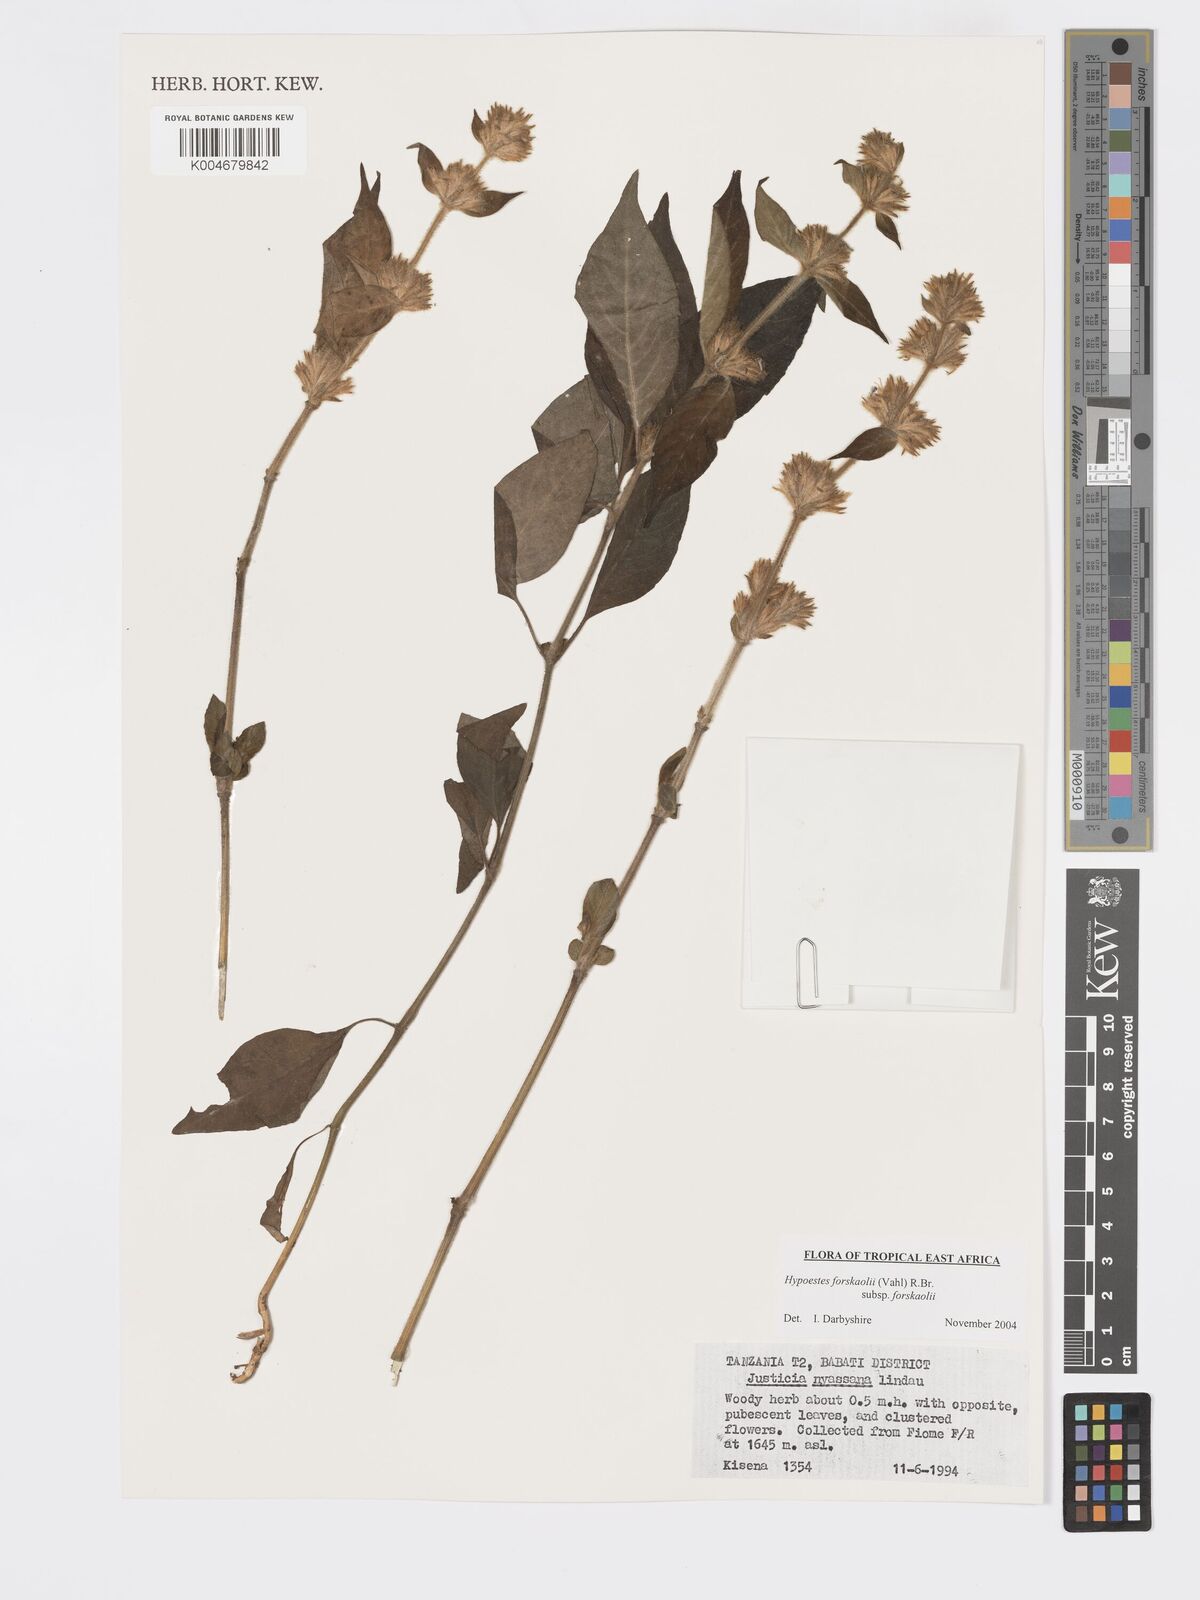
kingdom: Plantae
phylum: Tracheophyta
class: Magnoliopsida
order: Lamiales
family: Acanthaceae
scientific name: Acanthaceae
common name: Acanthaceae
